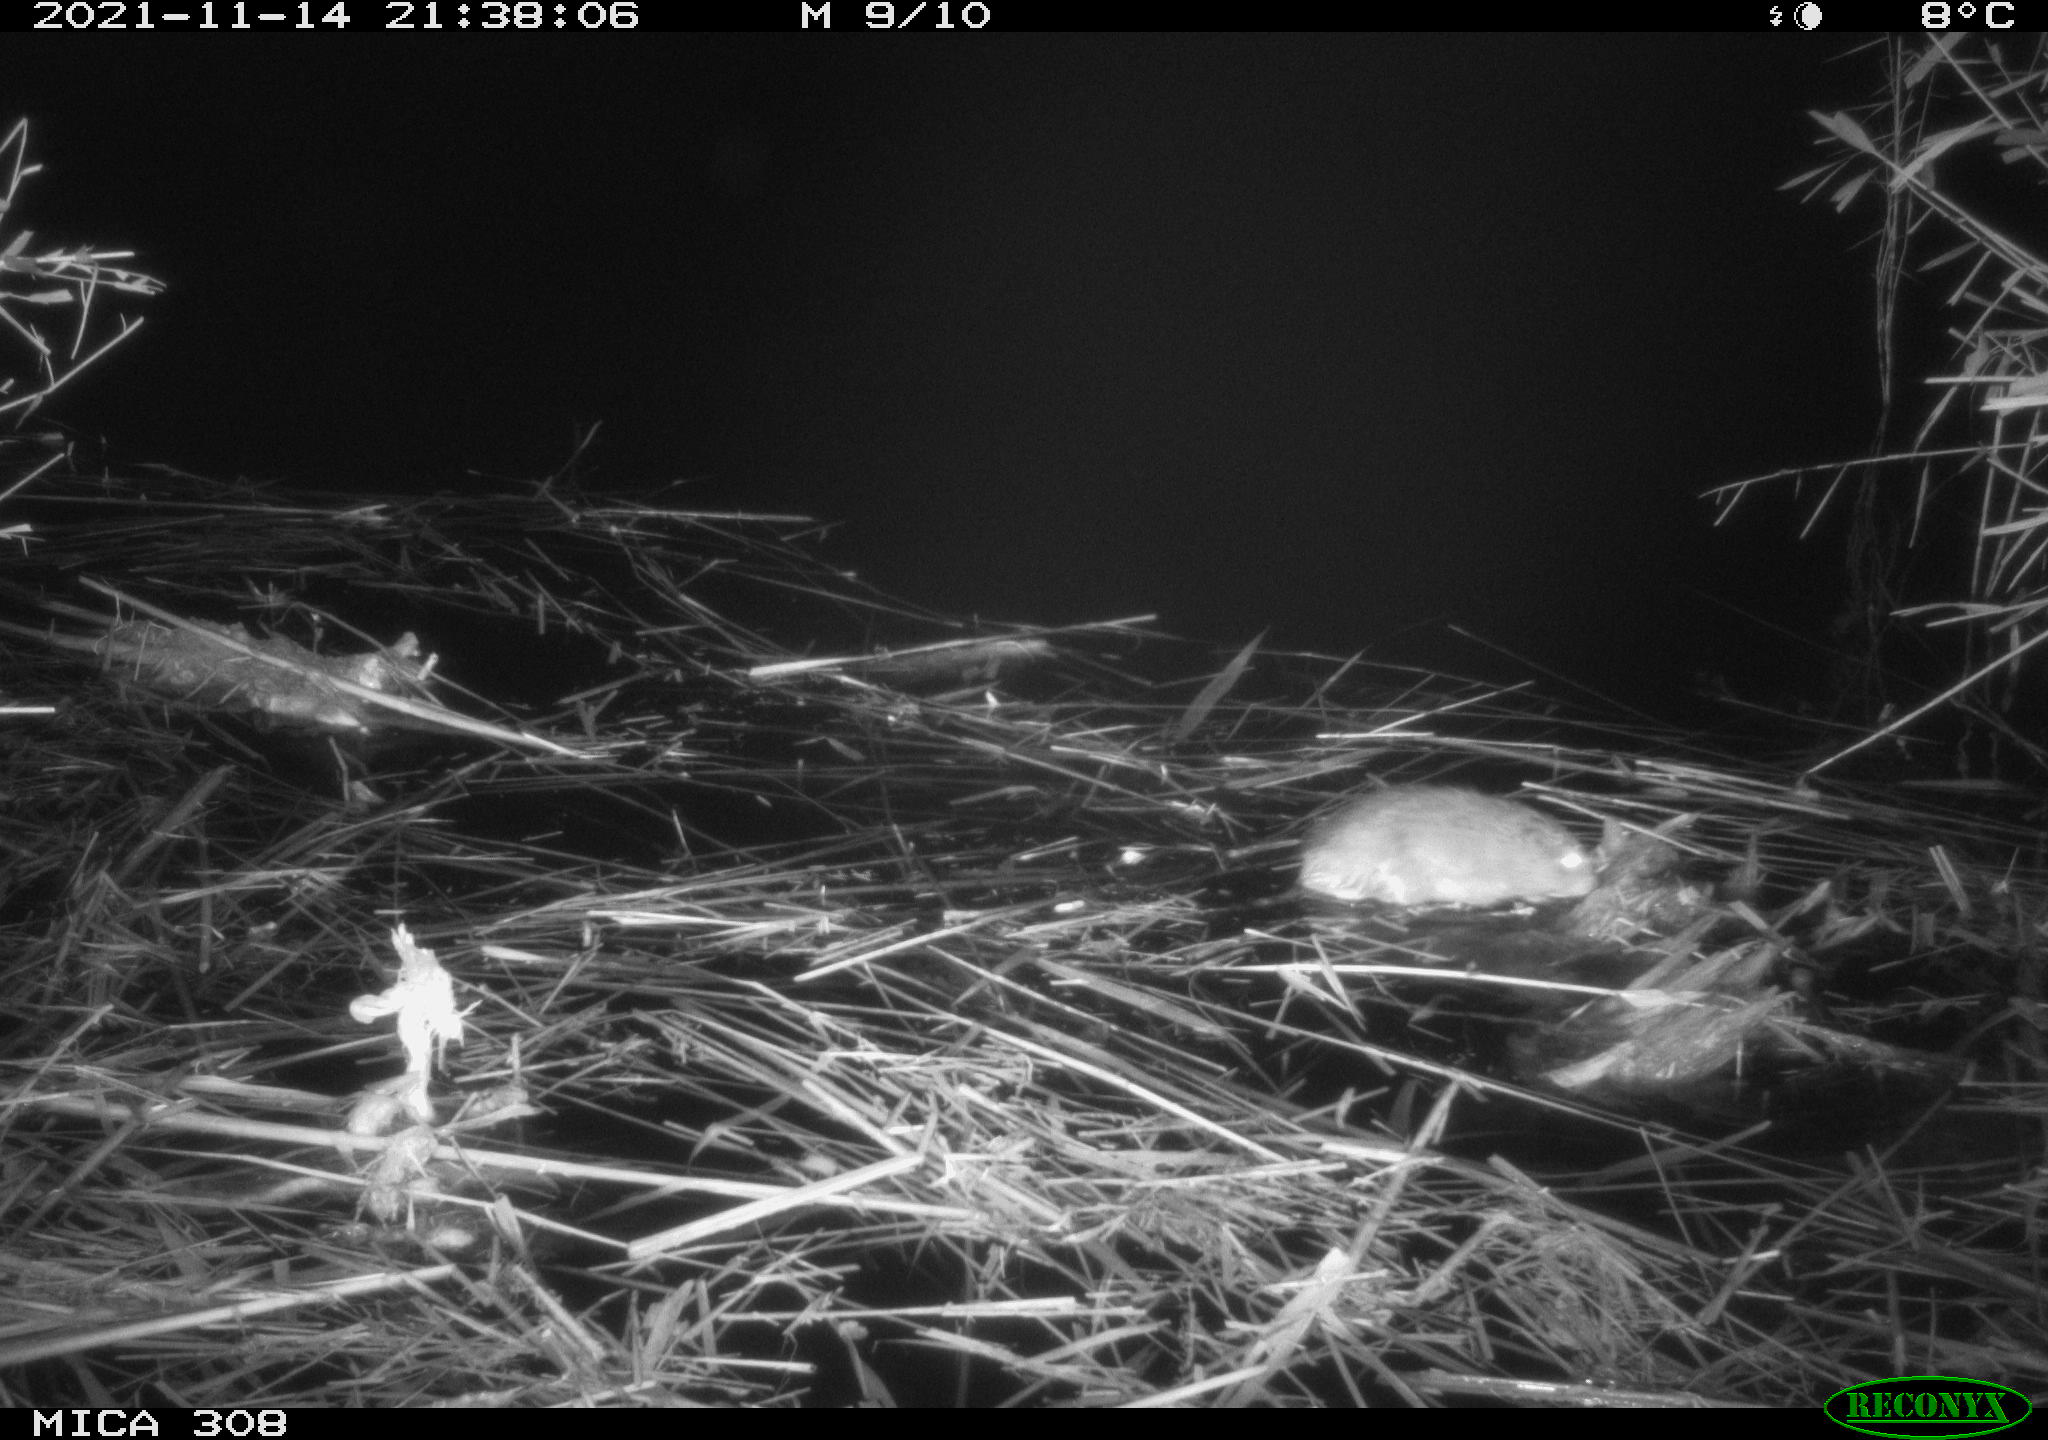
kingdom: Animalia
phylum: Chordata
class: Mammalia
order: Rodentia
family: Cricetidae
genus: Ondatra
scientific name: Ondatra zibethicus
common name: Muskrat
